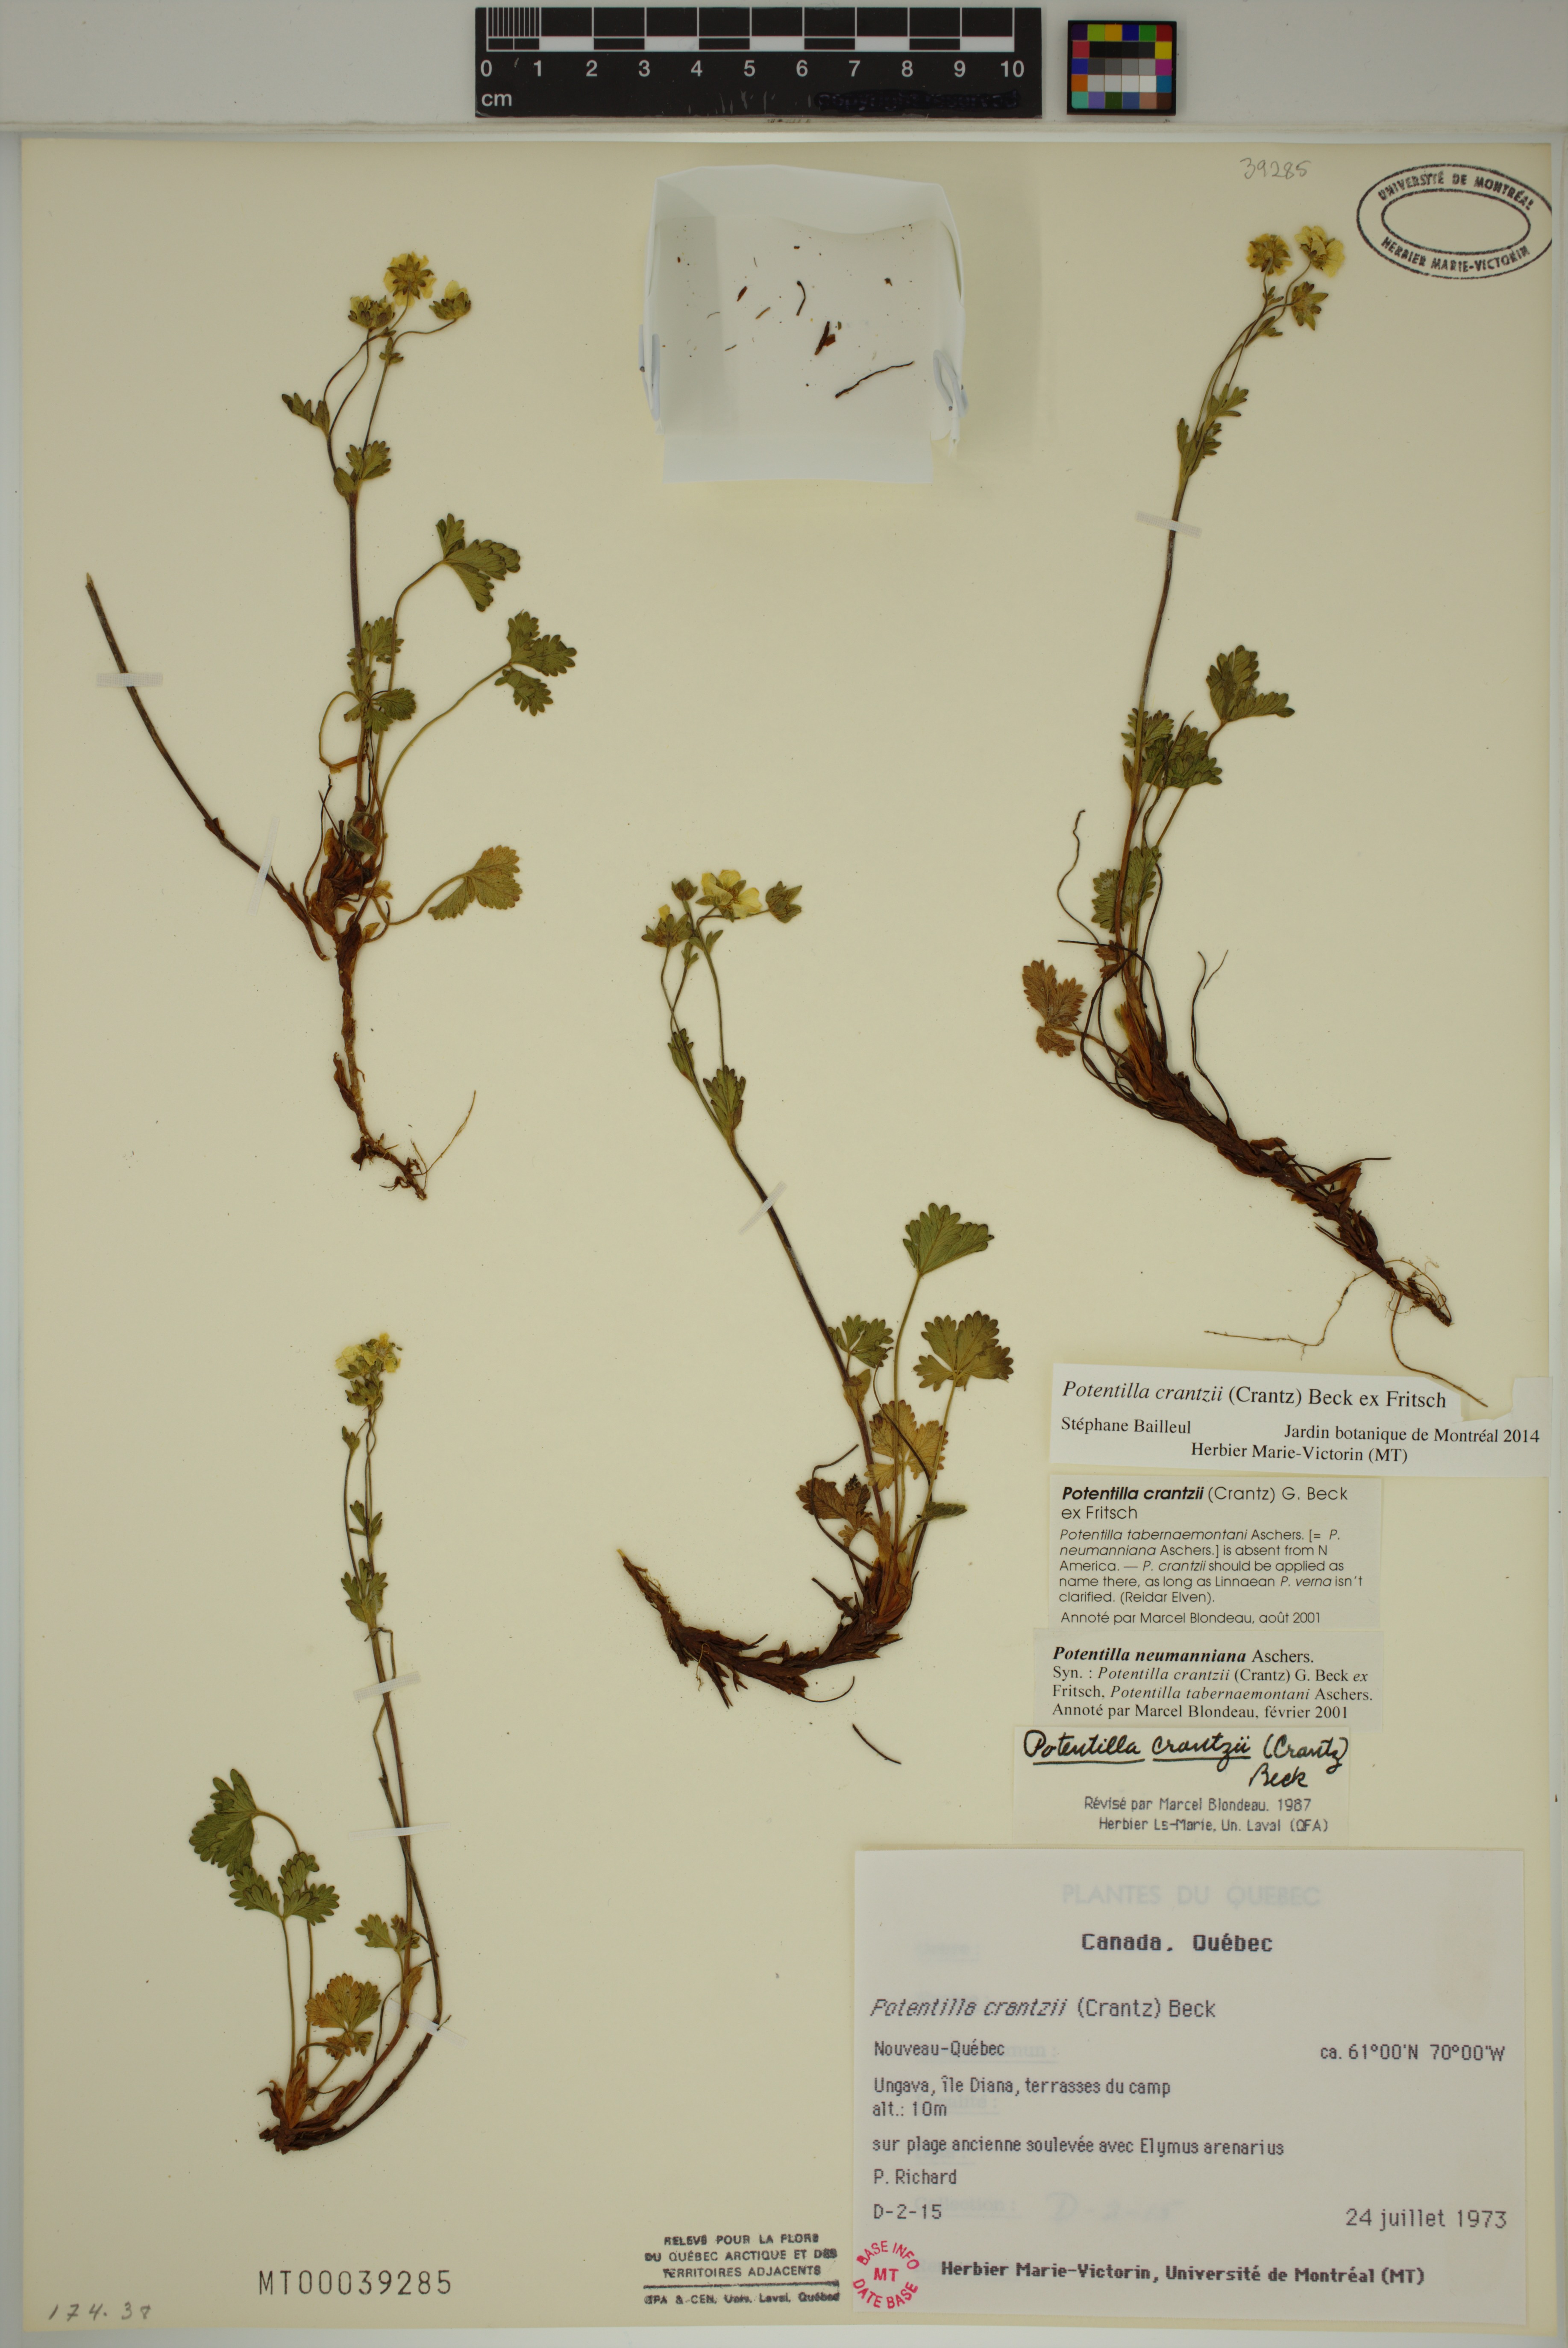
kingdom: Plantae
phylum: Tracheophyta
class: Magnoliopsida
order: Rosales
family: Rosaceae
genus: Potentilla
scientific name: Potentilla crantzii
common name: Alpine cinquefoil
